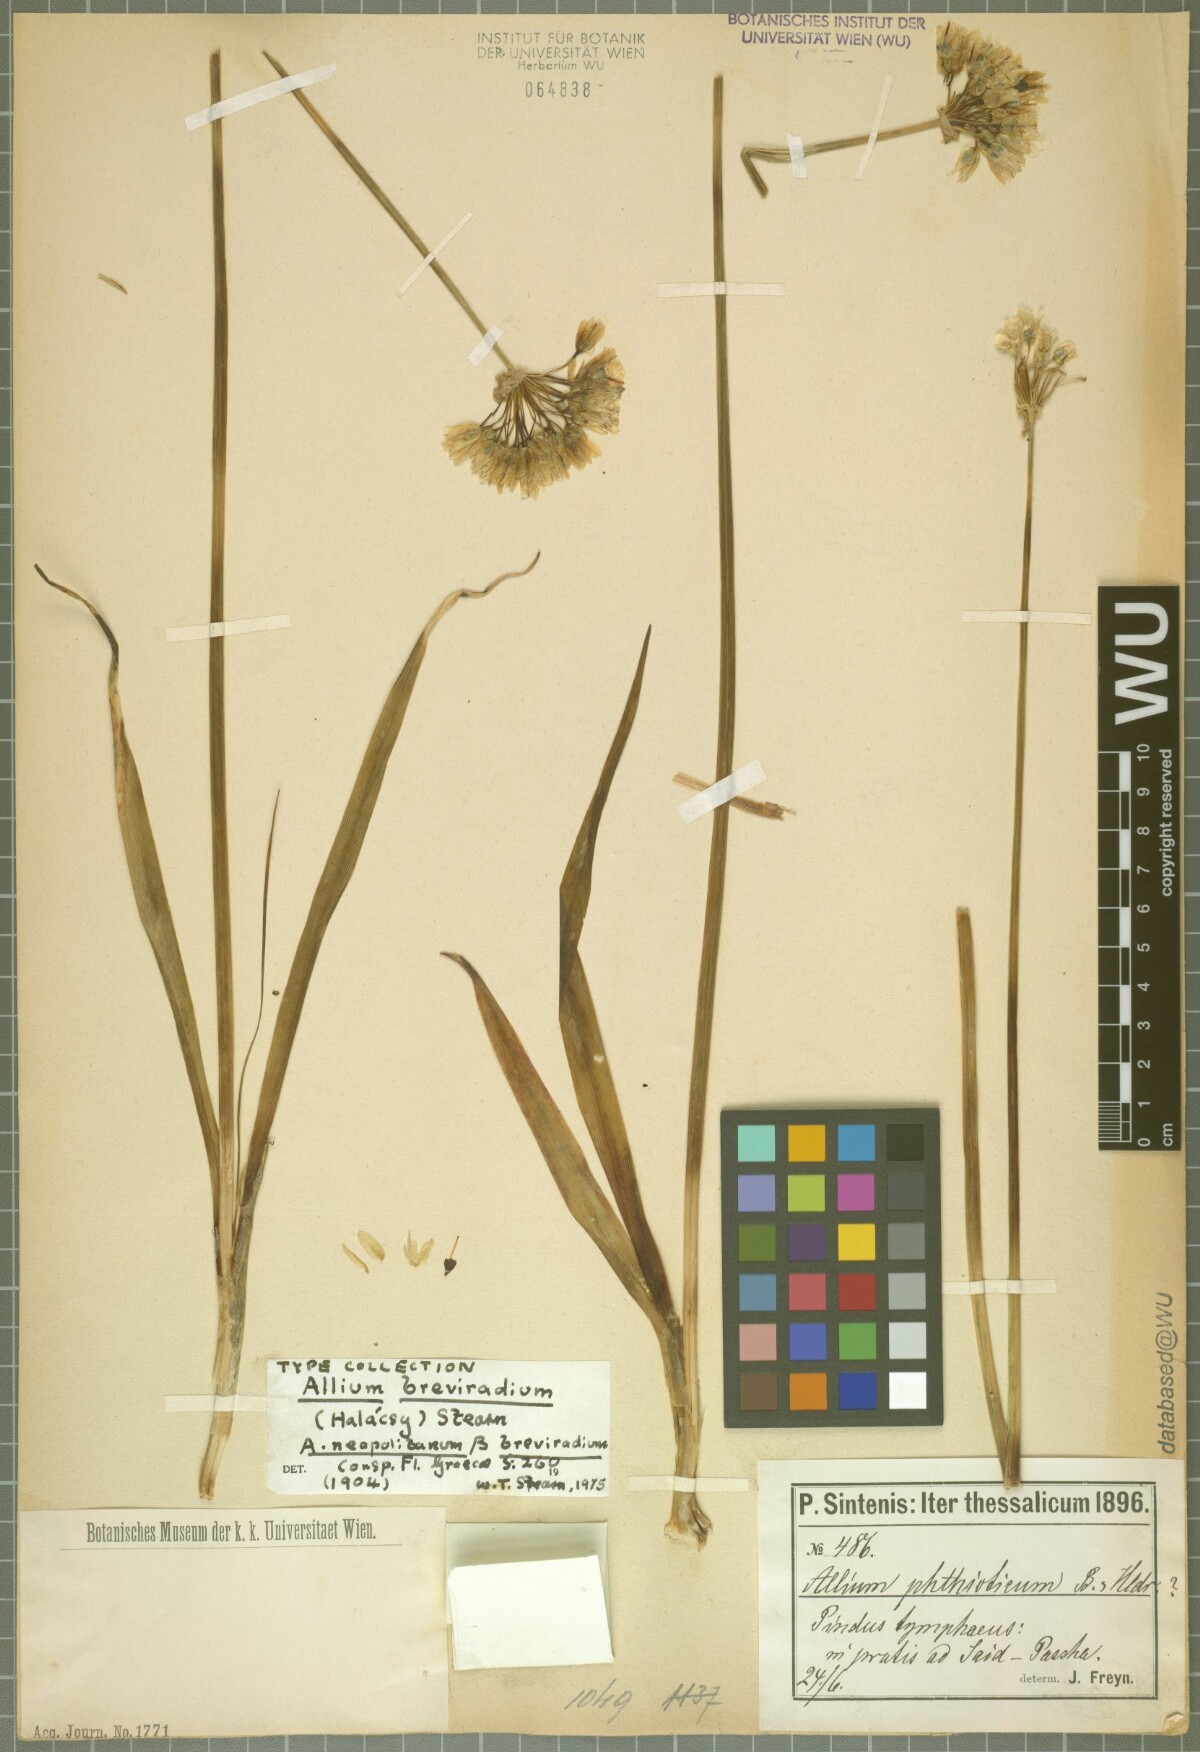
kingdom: Plantae
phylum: Tracheophyta
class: Liliopsida
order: Asparagales
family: Amaryllidaceae
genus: Allium
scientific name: Allium phthioticum
